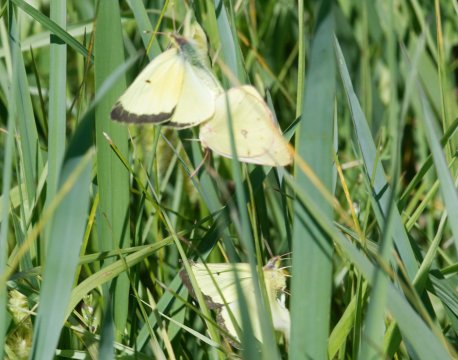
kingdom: Animalia
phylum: Arthropoda
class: Insecta
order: Lepidoptera
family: Pieridae
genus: Colias
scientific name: Colias philodice
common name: Clouded Sulphur
